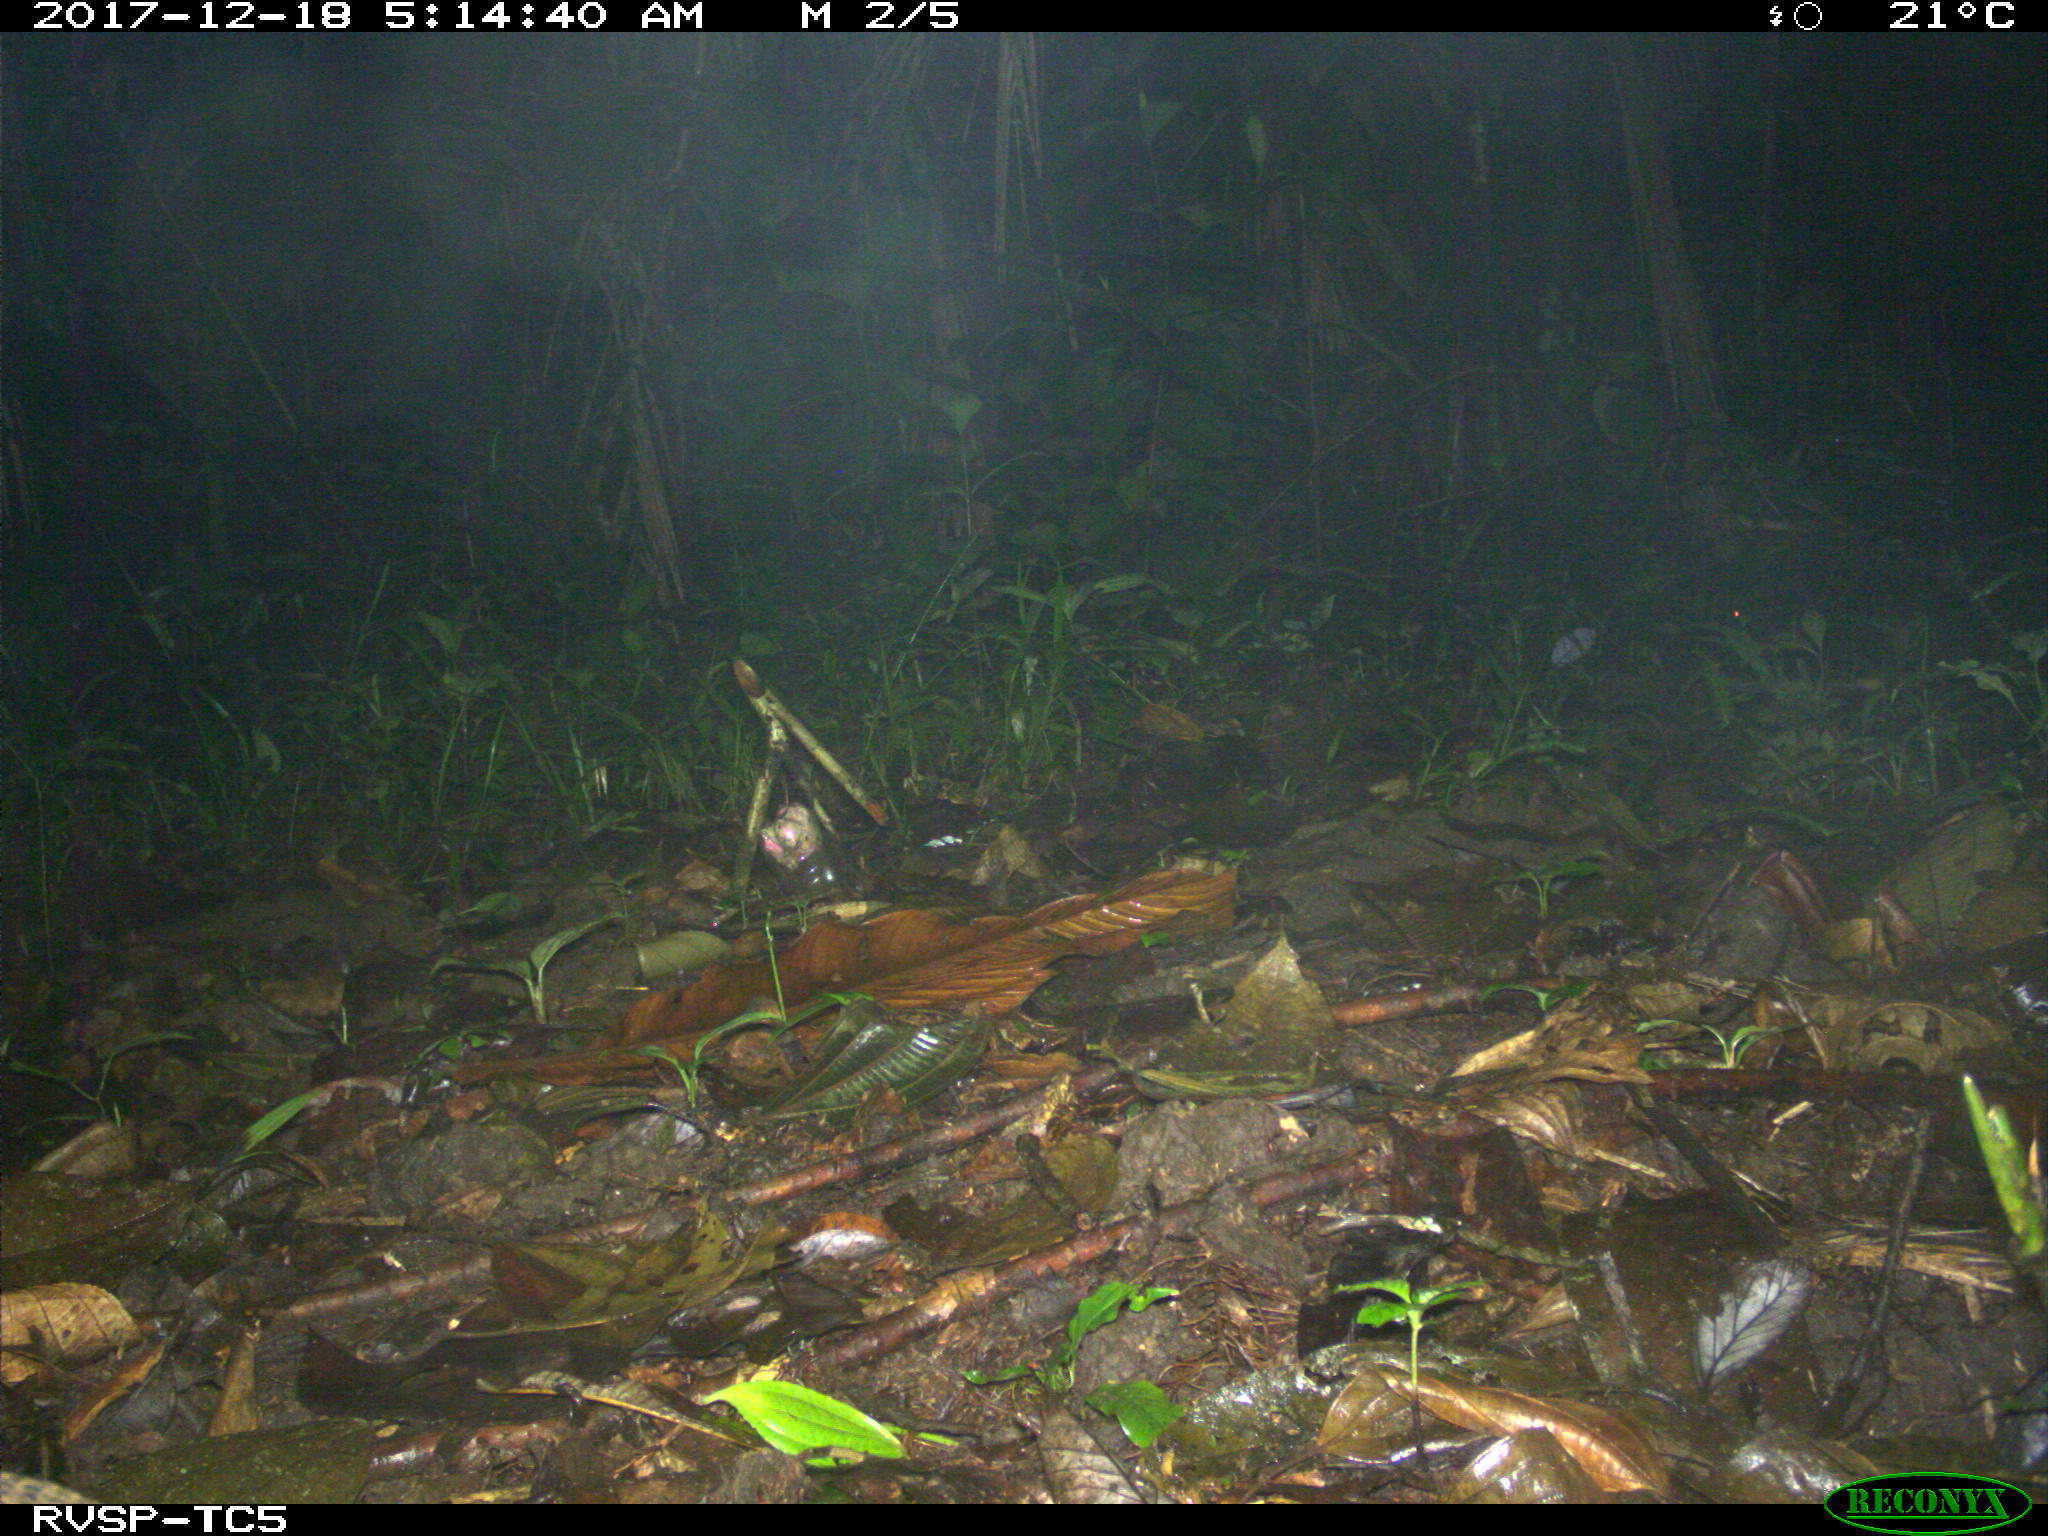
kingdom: Animalia
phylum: Chordata
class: Mammalia
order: Cingulata
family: Dasypodidae
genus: Dasypus
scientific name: Dasypus novemcinctus
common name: Nine-banded armadillo
